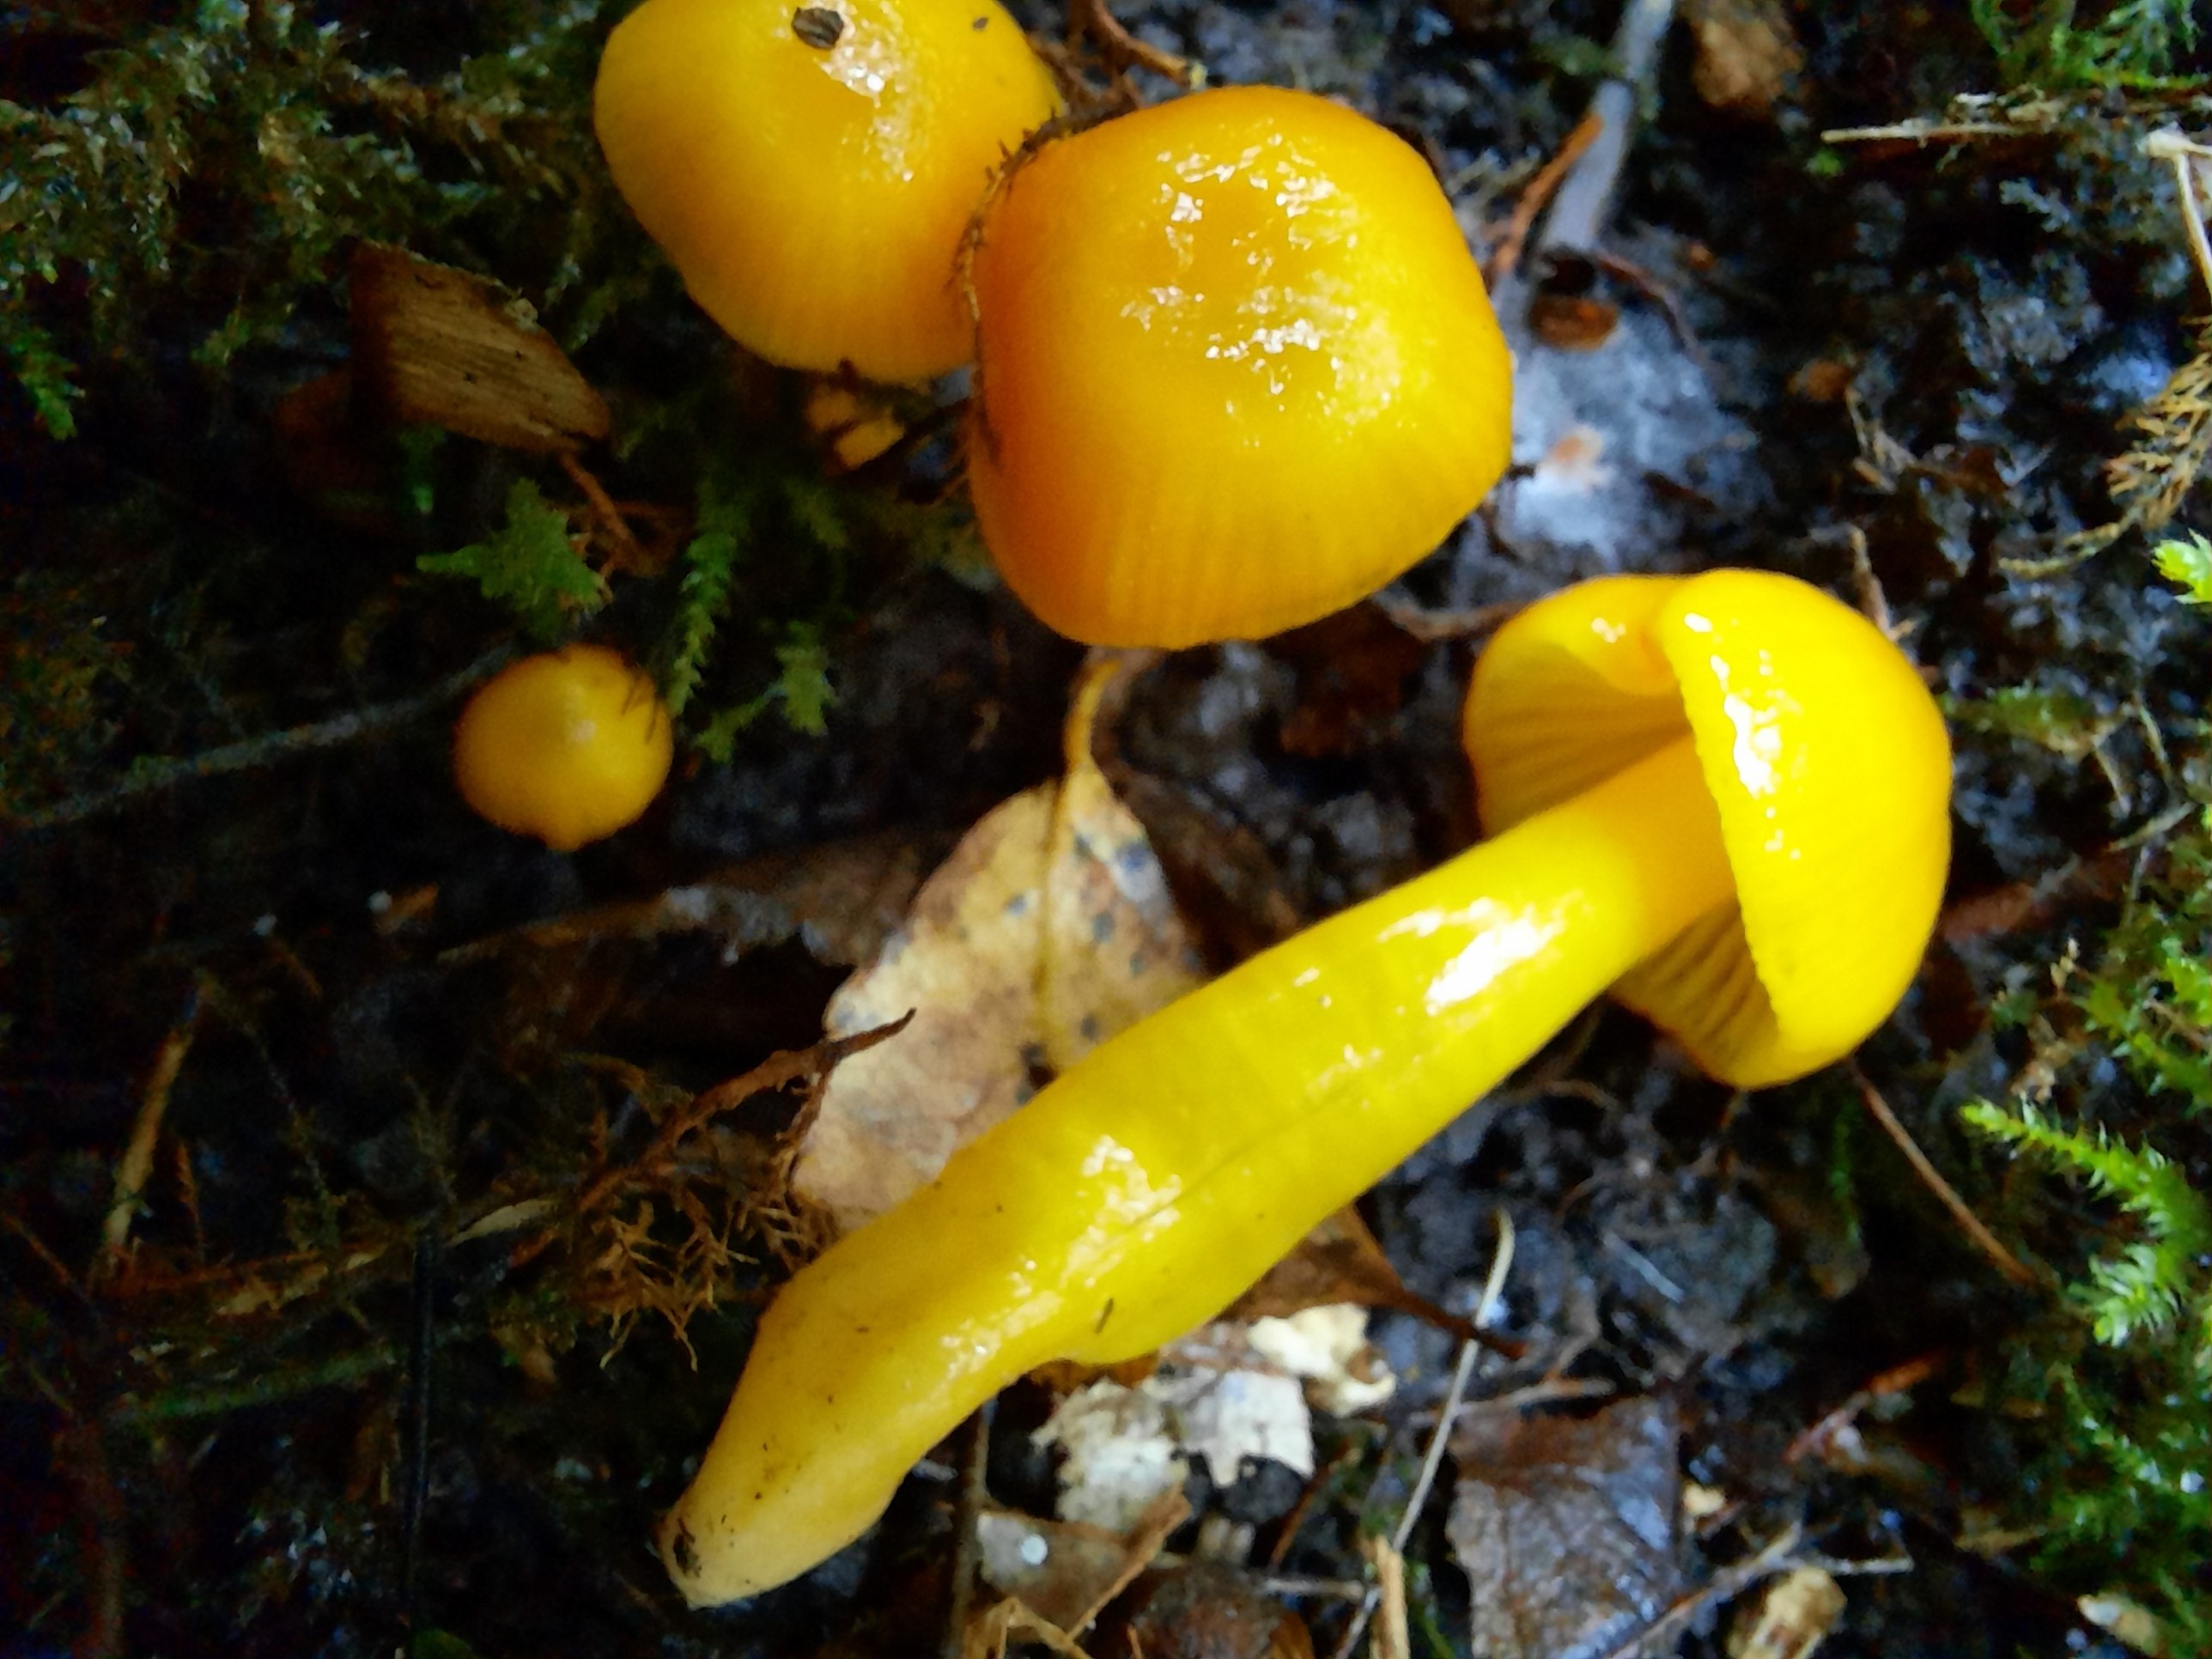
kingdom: Fungi
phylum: Basidiomycota
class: Agaricomycetes
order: Agaricales
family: Hygrophoraceae
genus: Hygrocybe
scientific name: Hygrocybe glutinipes
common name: slimstokket vokshat
